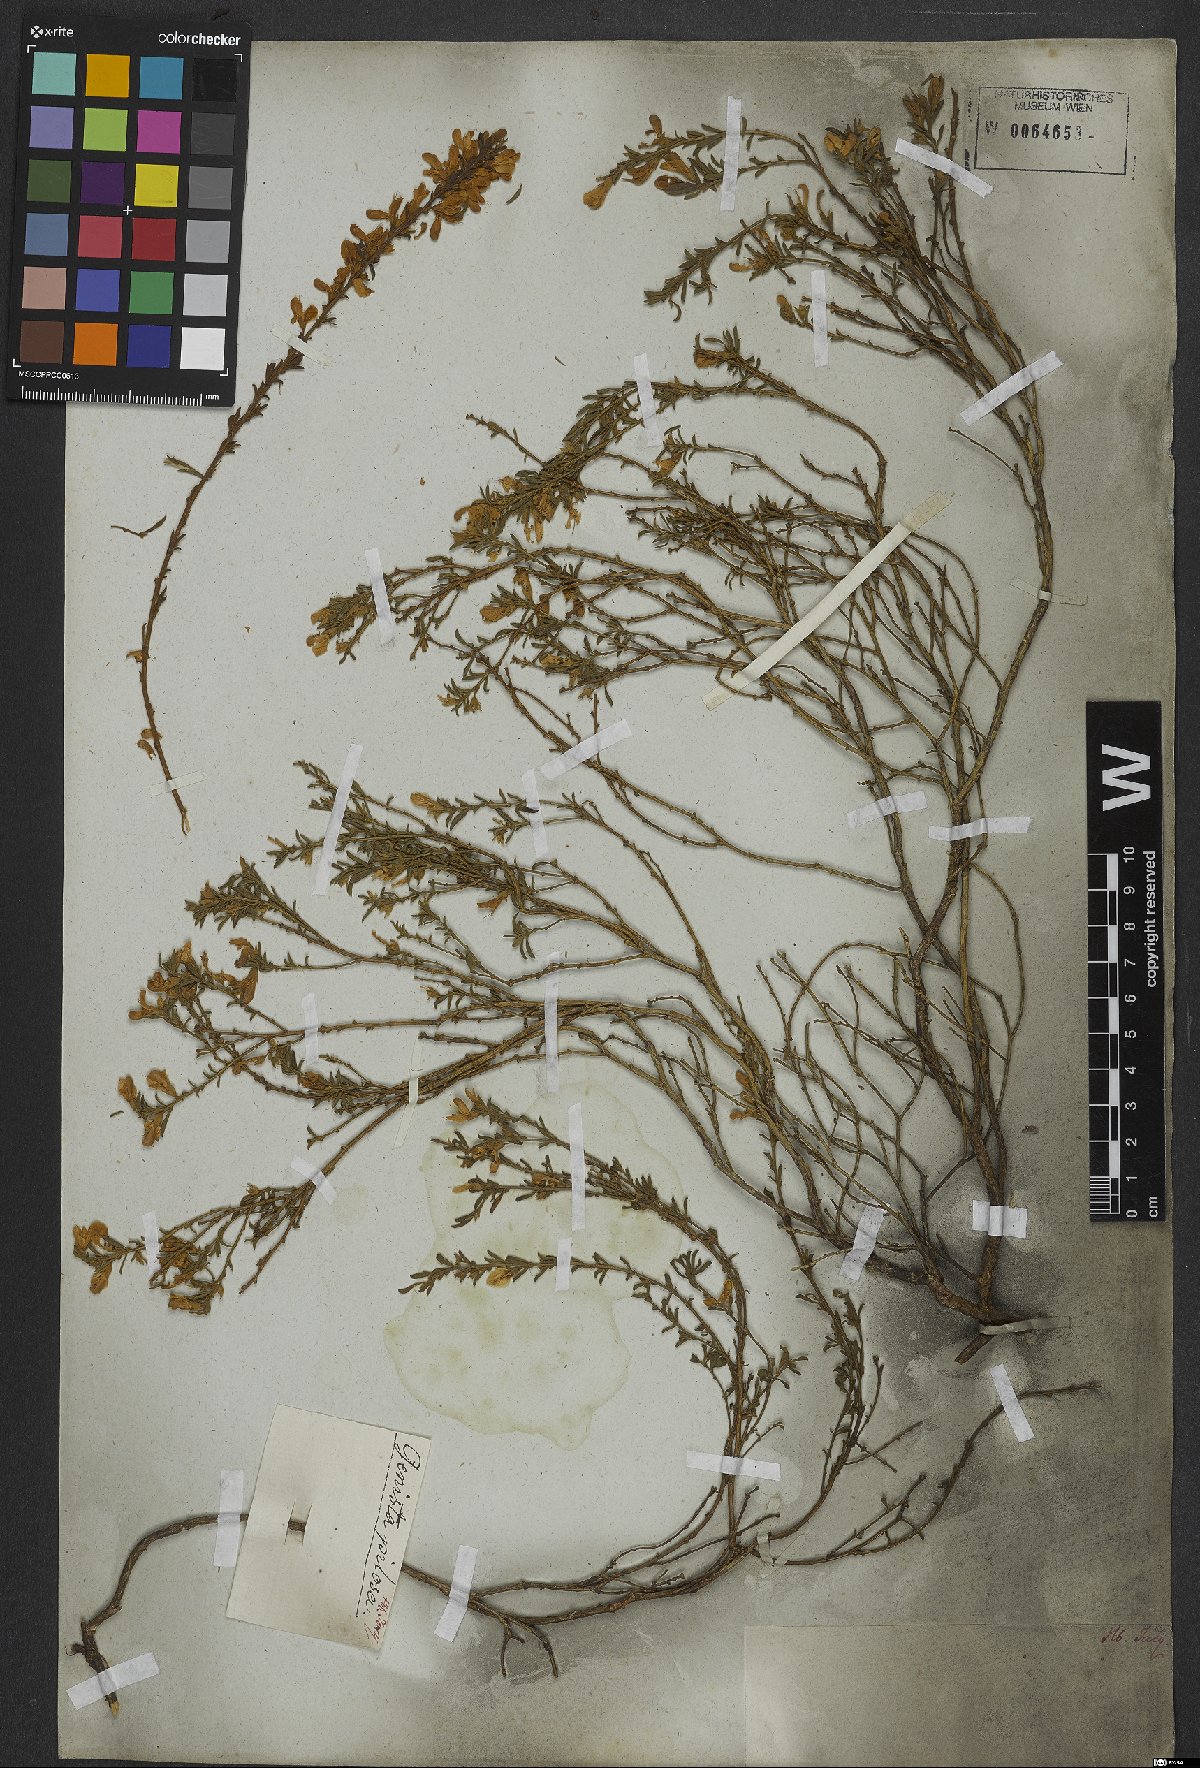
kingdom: Plantae
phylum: Tracheophyta
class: Magnoliopsida
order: Fabales
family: Fabaceae
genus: Genista
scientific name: Genista sagittalis
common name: Winged greenweed
